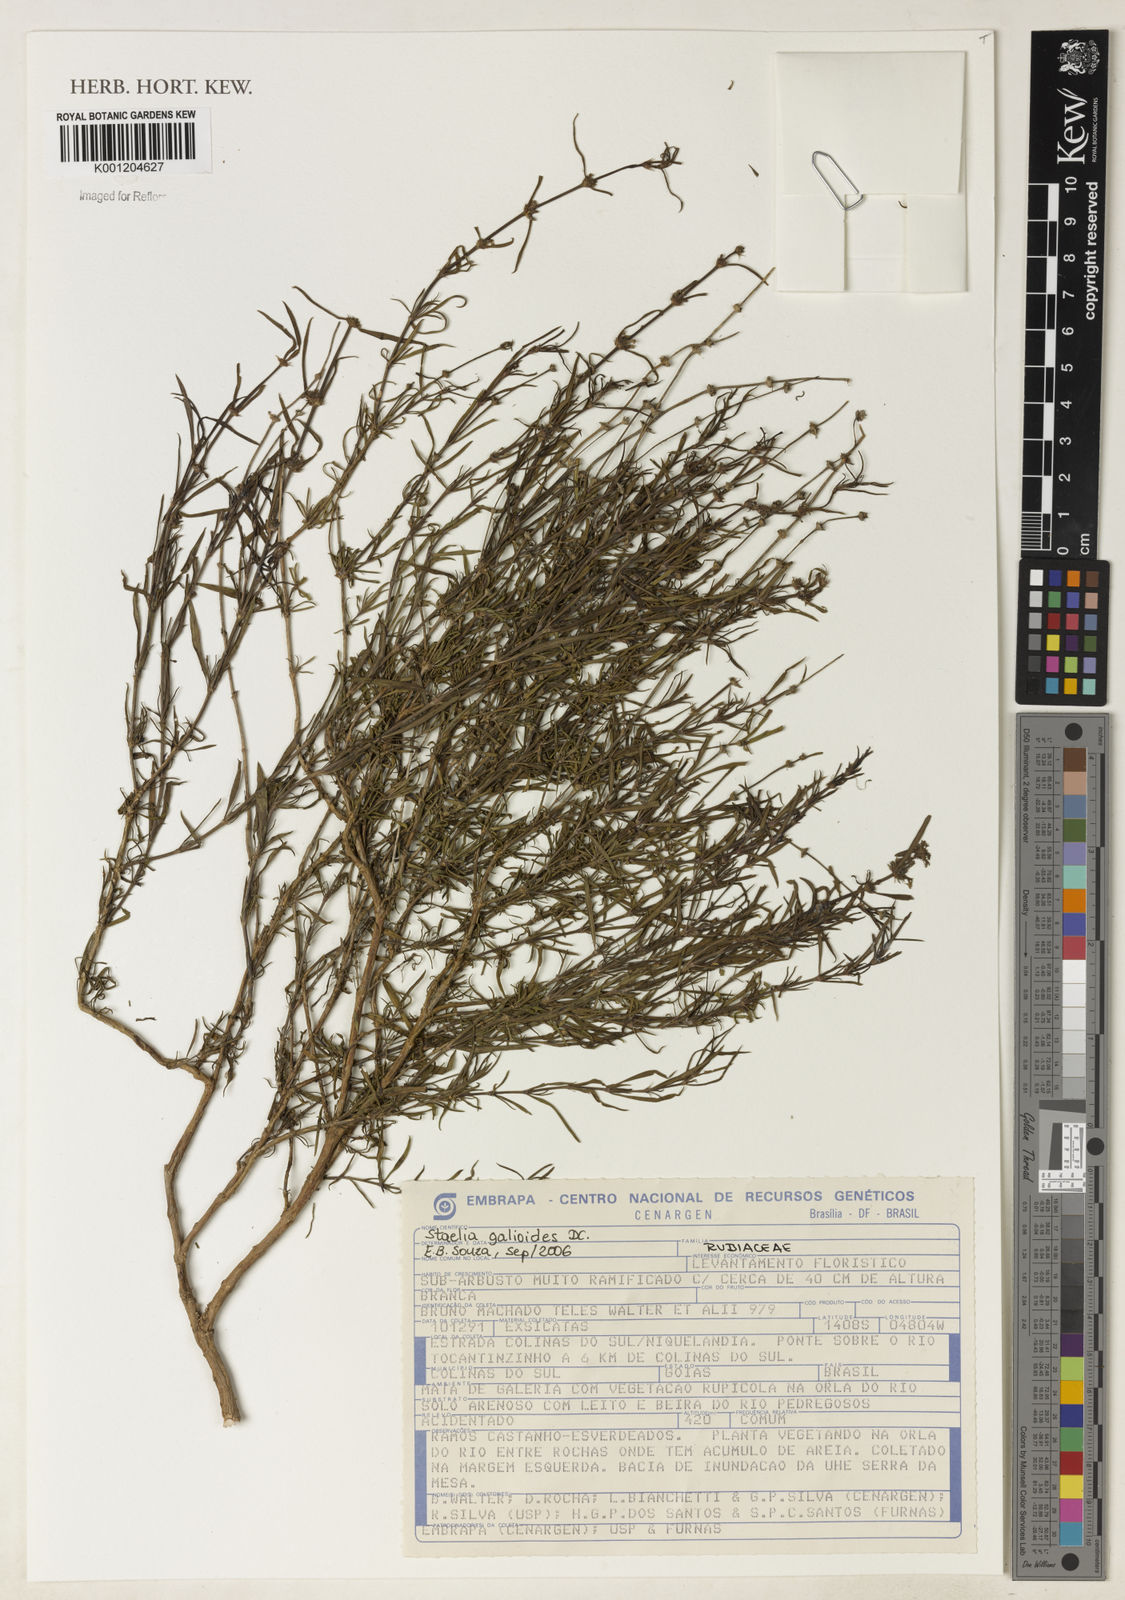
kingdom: Plantae
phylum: Tracheophyta
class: Magnoliopsida
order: Gentianales
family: Rubiaceae
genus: Staelia
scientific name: Staelia galioides
